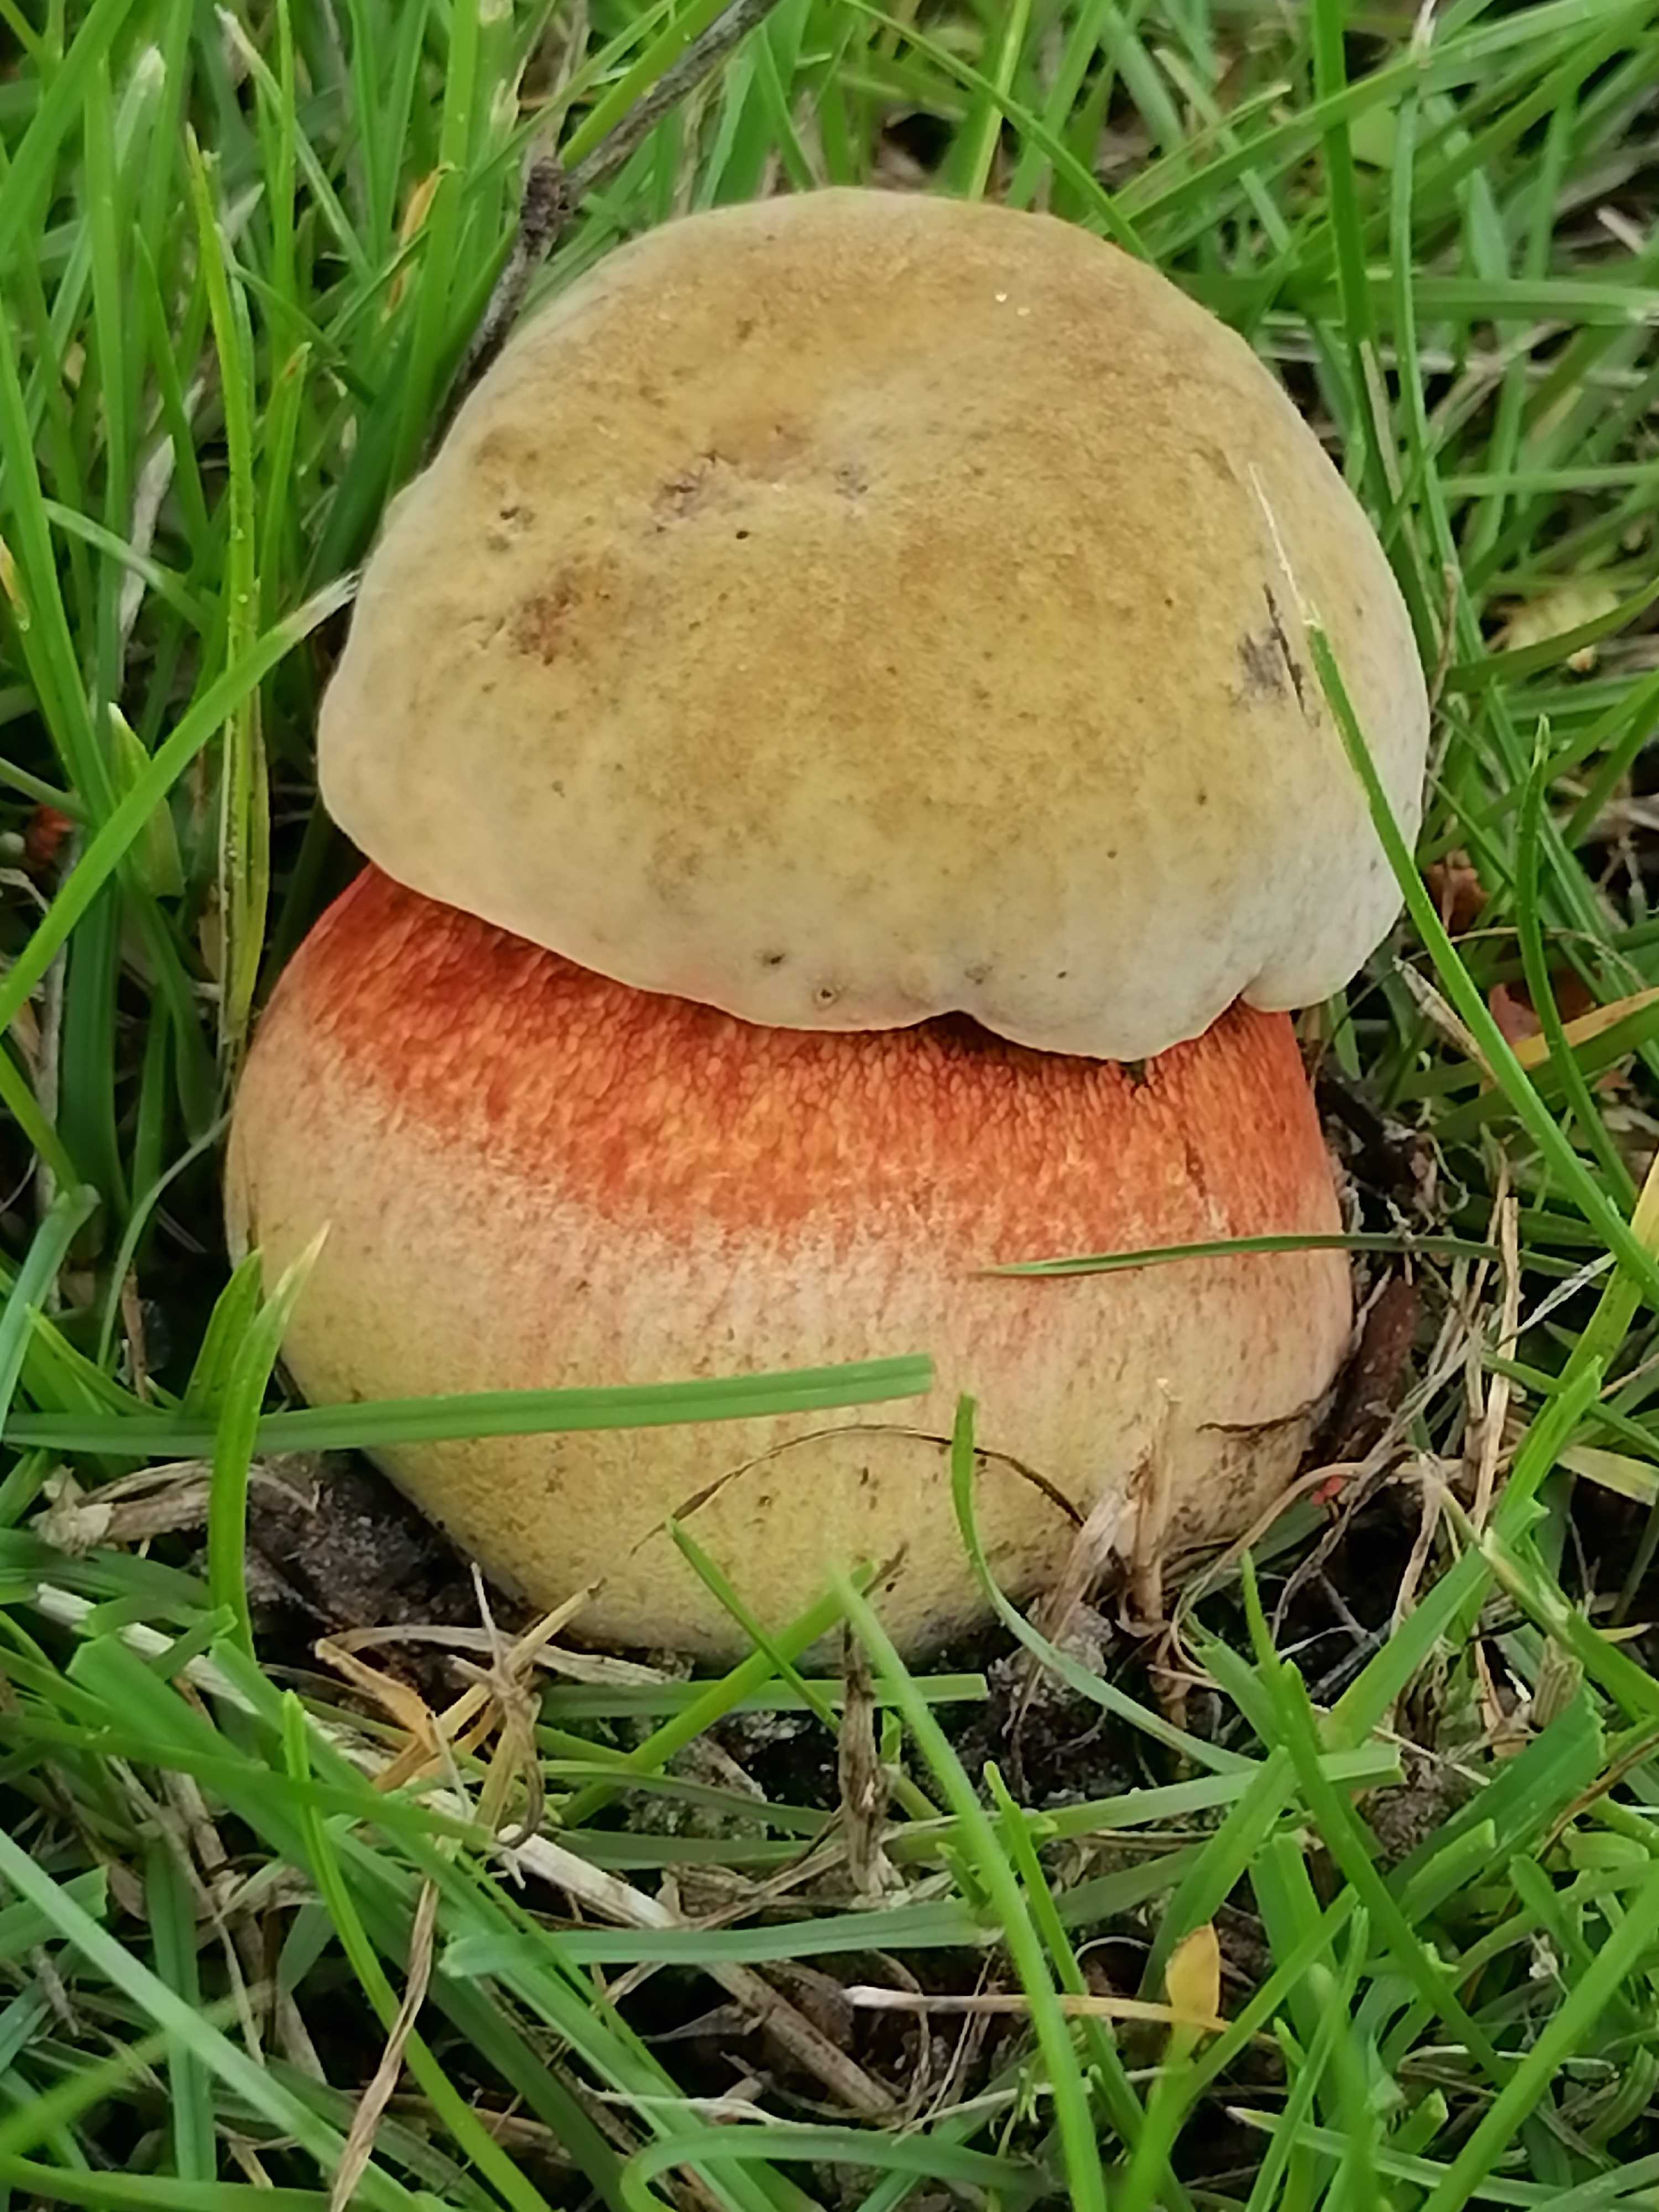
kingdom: Fungi
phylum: Basidiomycota
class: Agaricomycetes
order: Boletales
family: Boletaceae
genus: Suillellus
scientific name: Suillellus luridus
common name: netstokket indigorørhat
